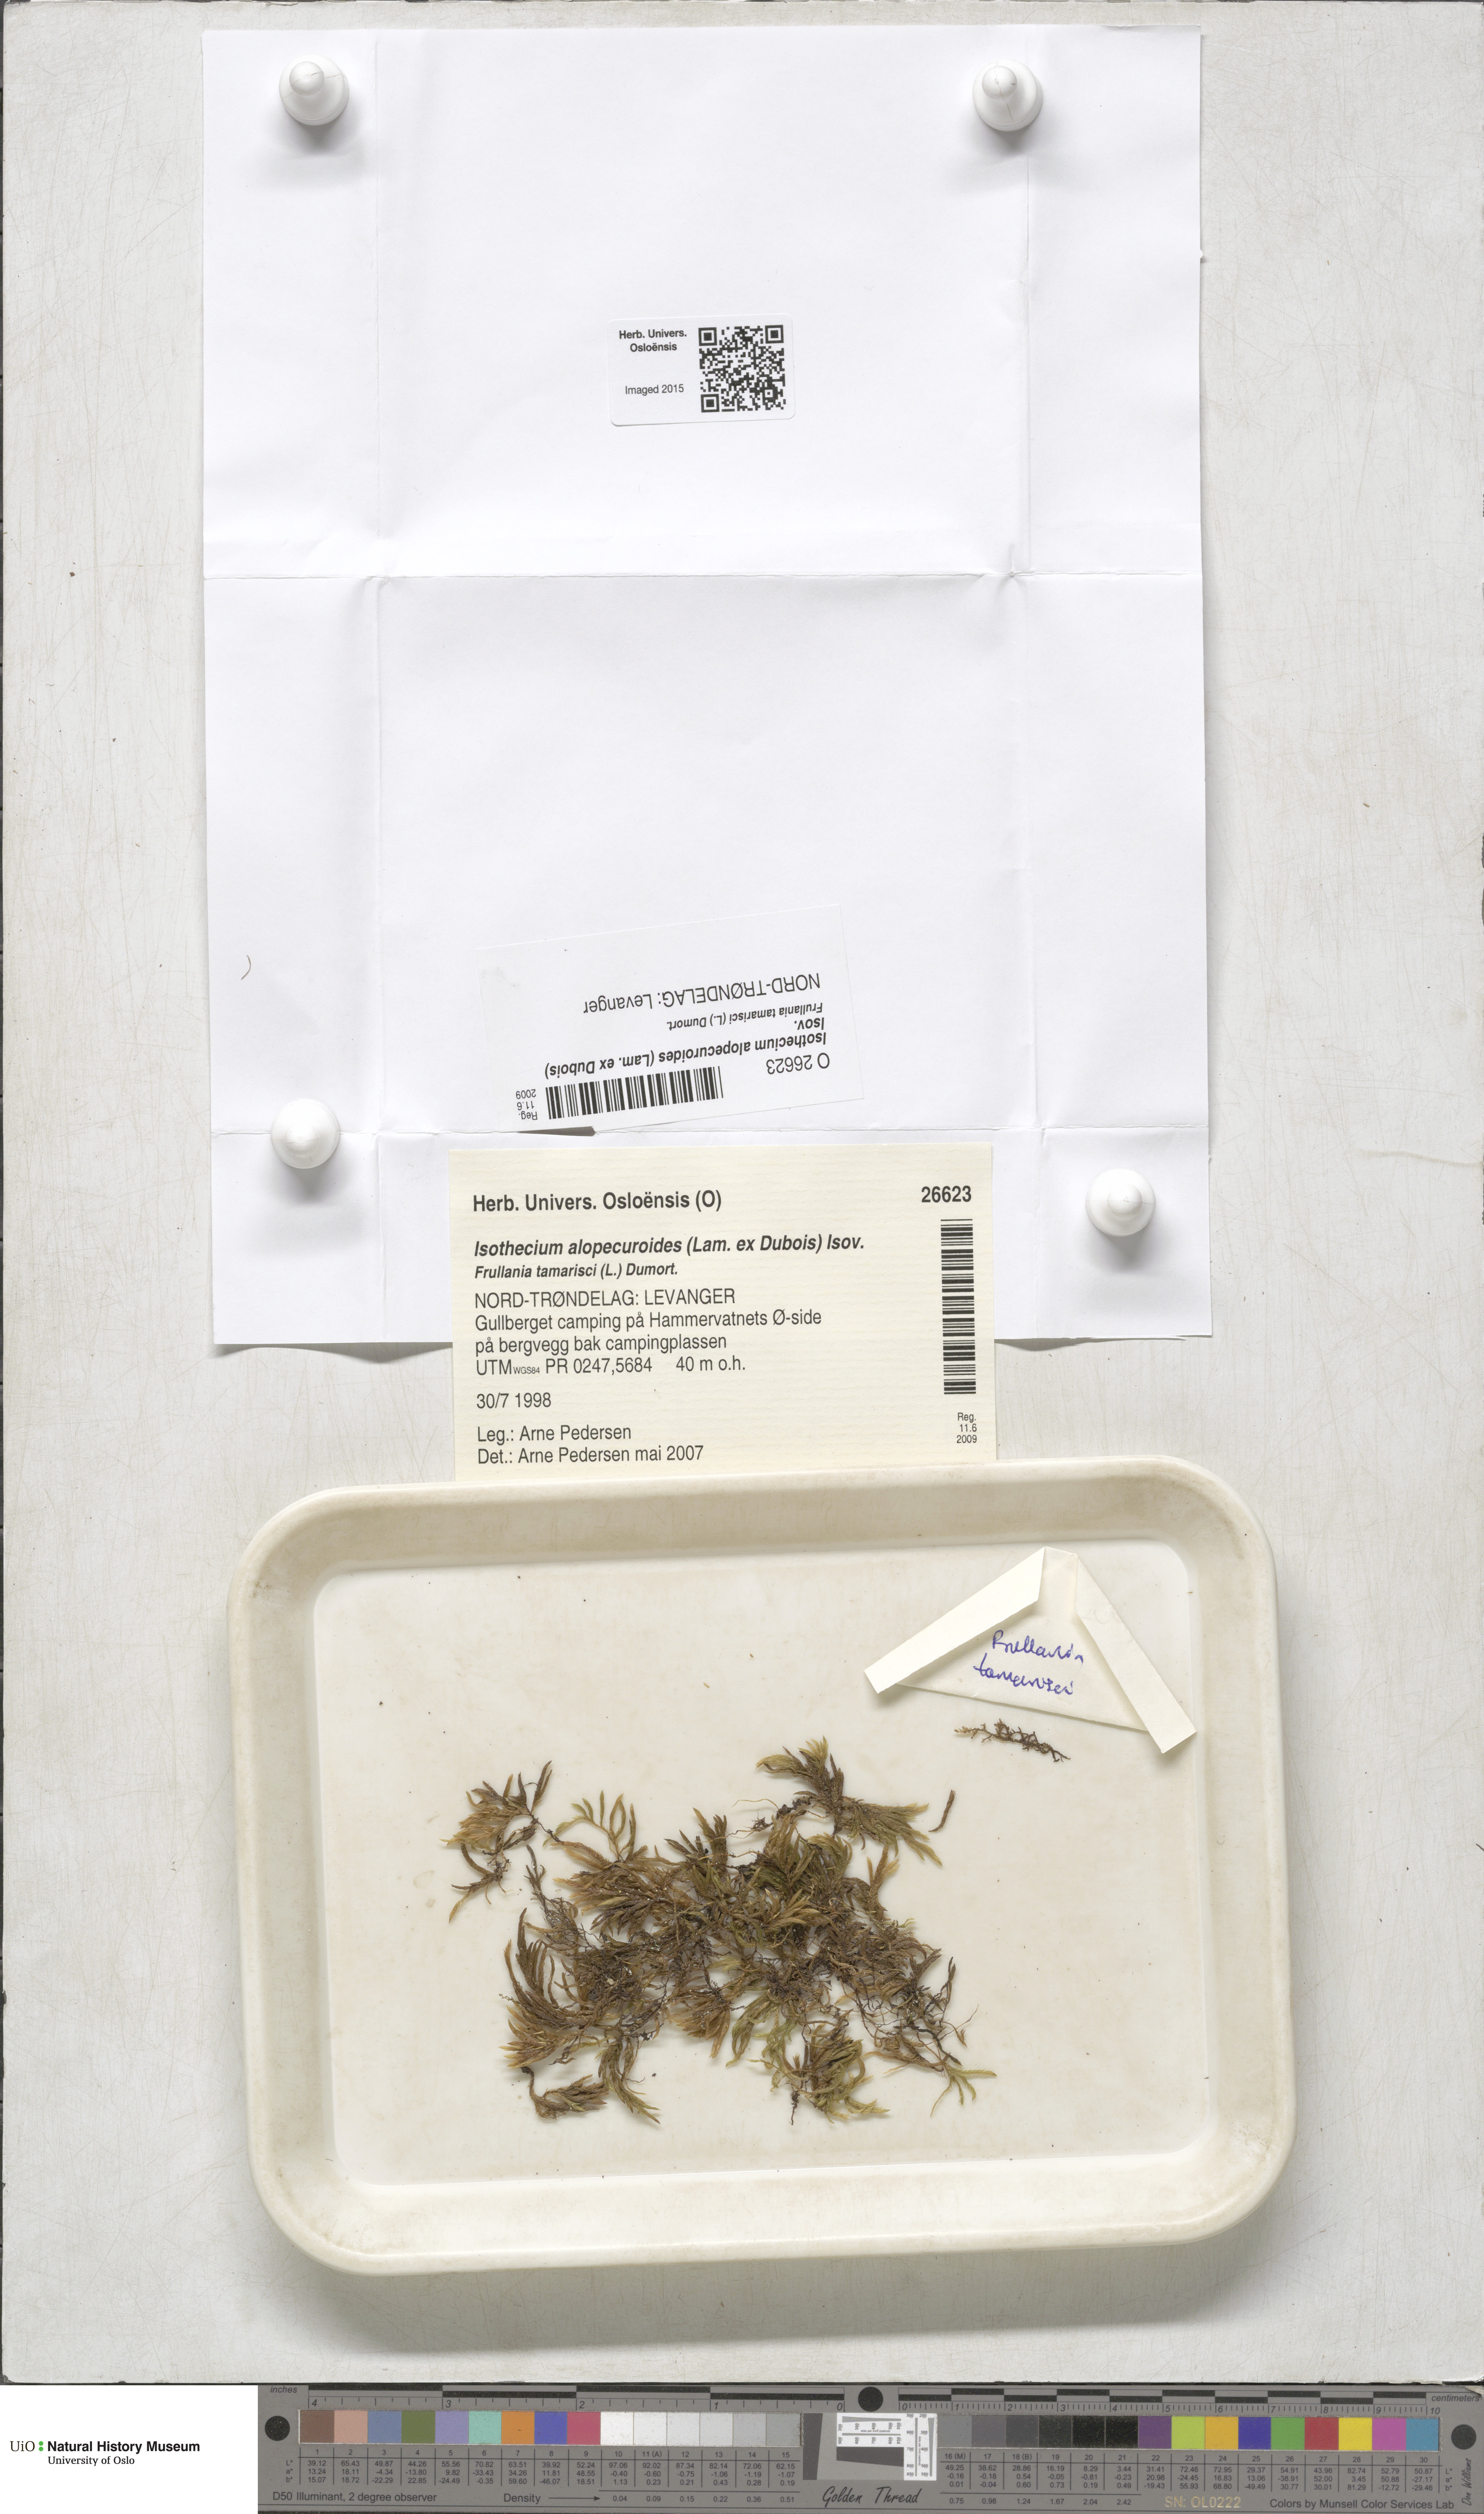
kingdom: Plantae
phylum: Bryophyta
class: Bryopsida
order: Hypnales
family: Lembophyllaceae
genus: Isothecium
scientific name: Isothecium alopecuroides
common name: Larger mouse-tail moss
